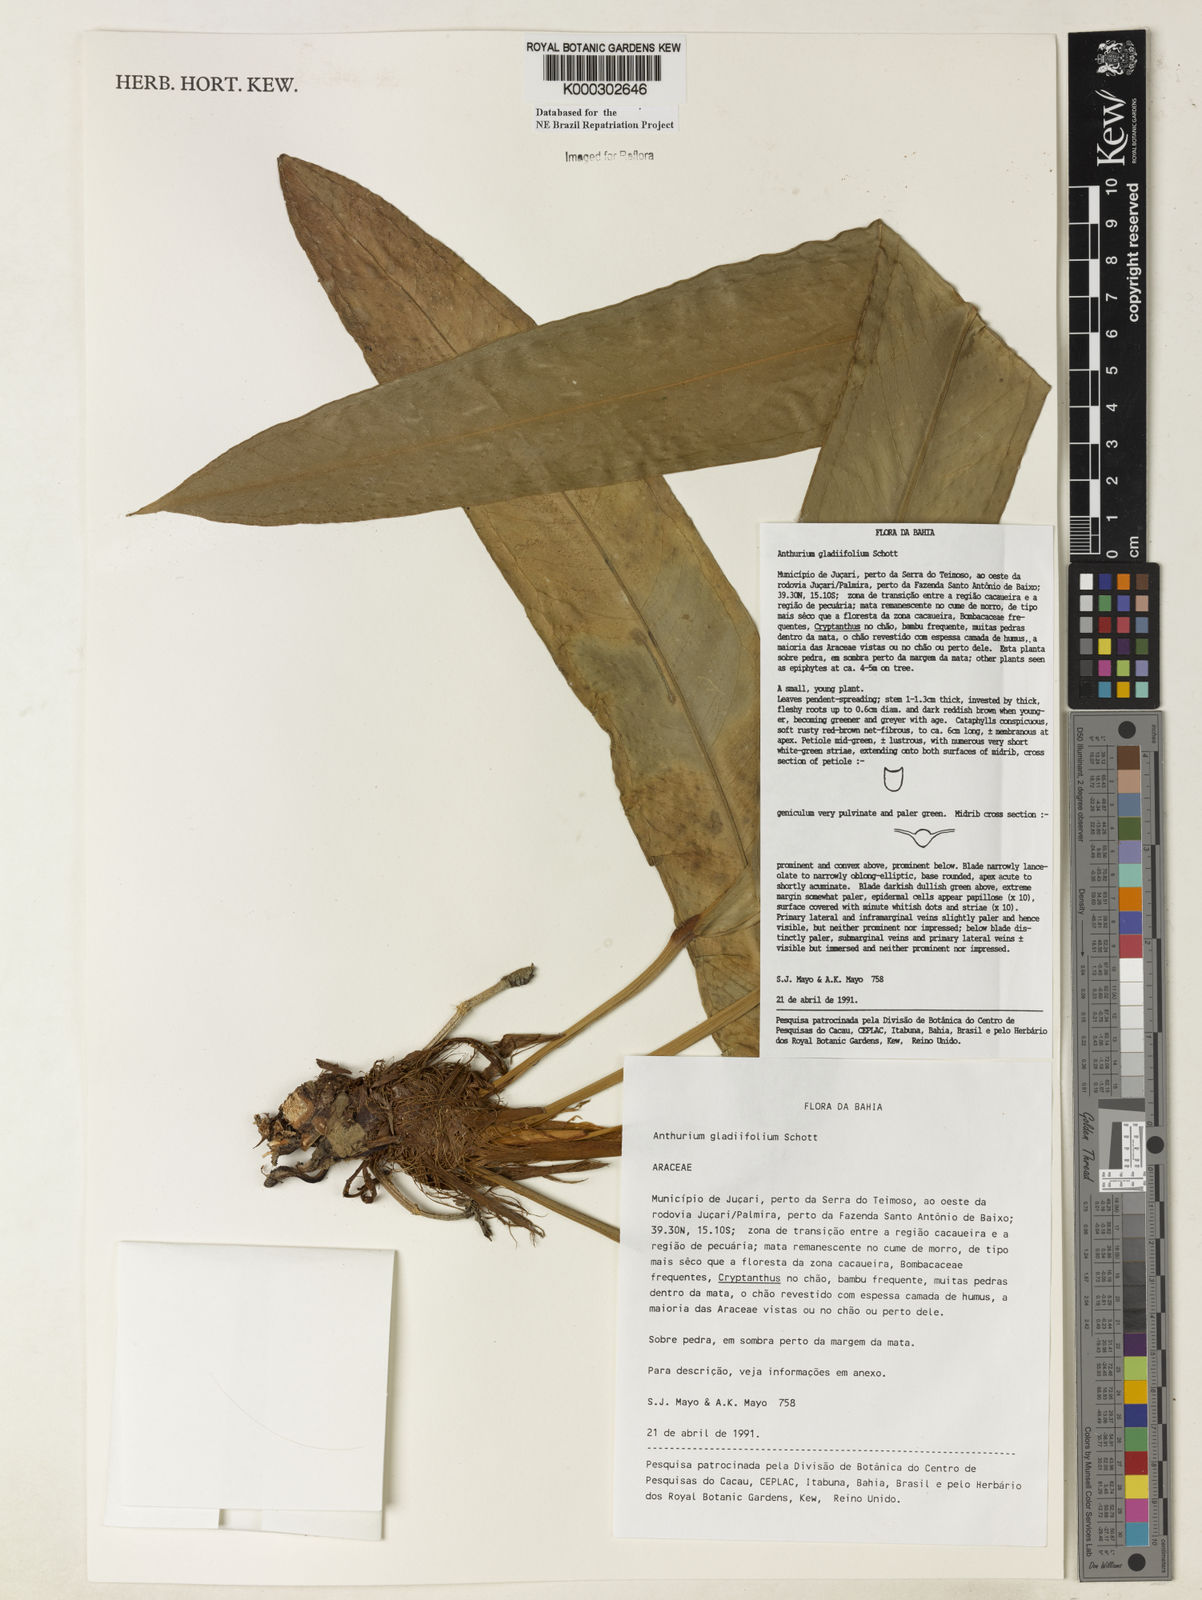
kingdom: Plantae
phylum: Tracheophyta
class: Liliopsida
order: Alismatales
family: Araceae
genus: Anthurium
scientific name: Anthurium gladiifolium
